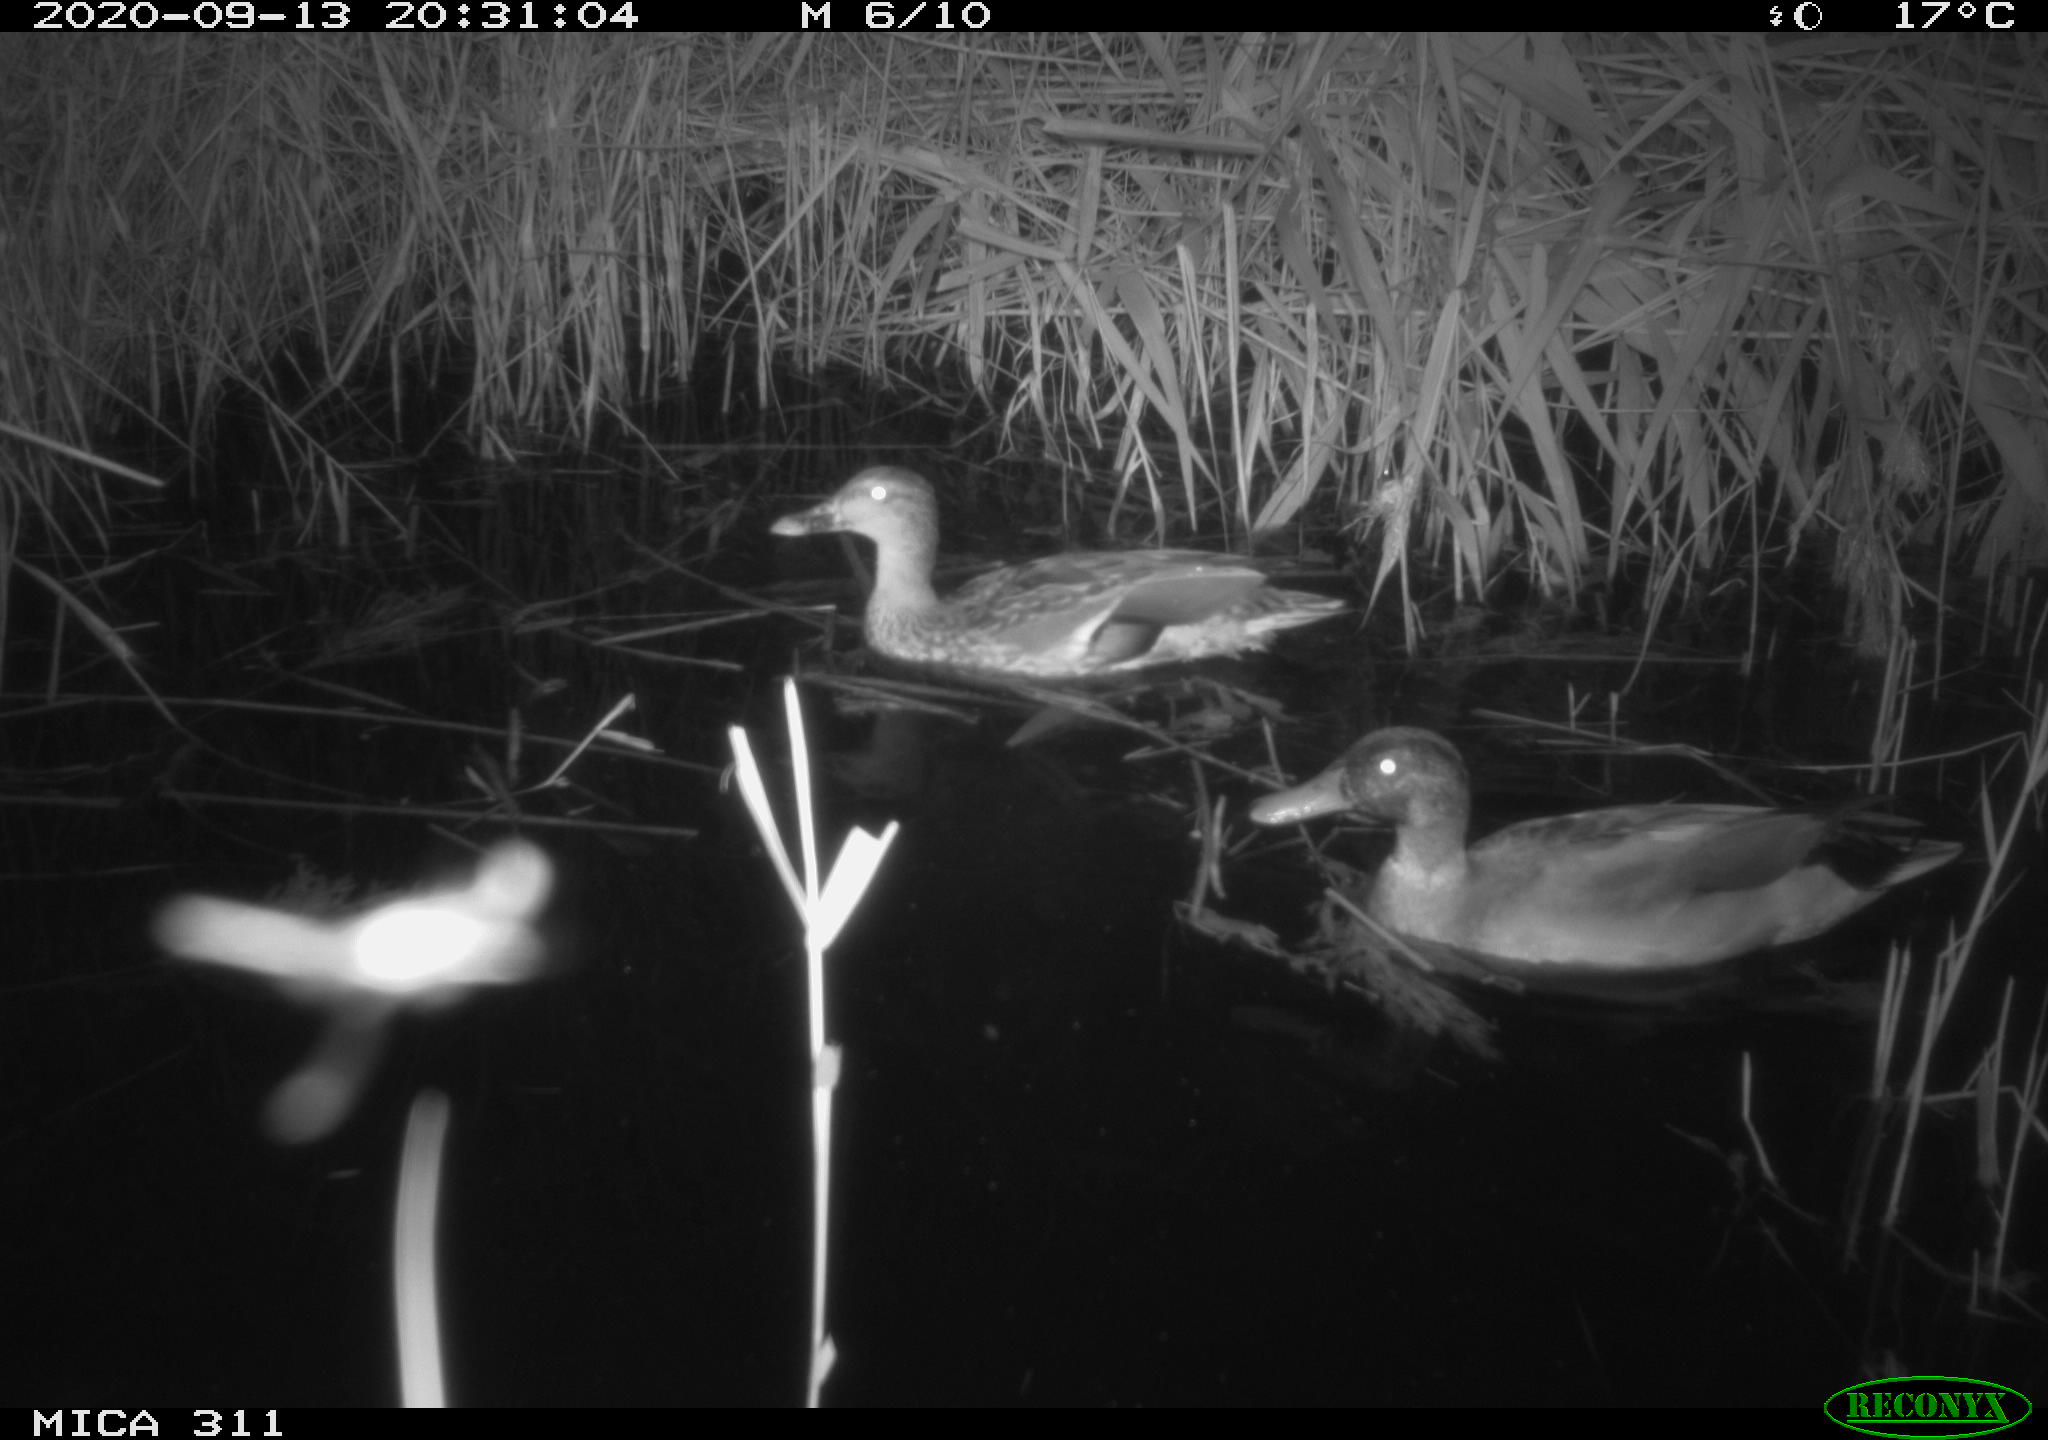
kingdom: Animalia
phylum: Chordata
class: Aves
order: Anseriformes
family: Anatidae
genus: Anas
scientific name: Anas platyrhynchos
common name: Mallard
